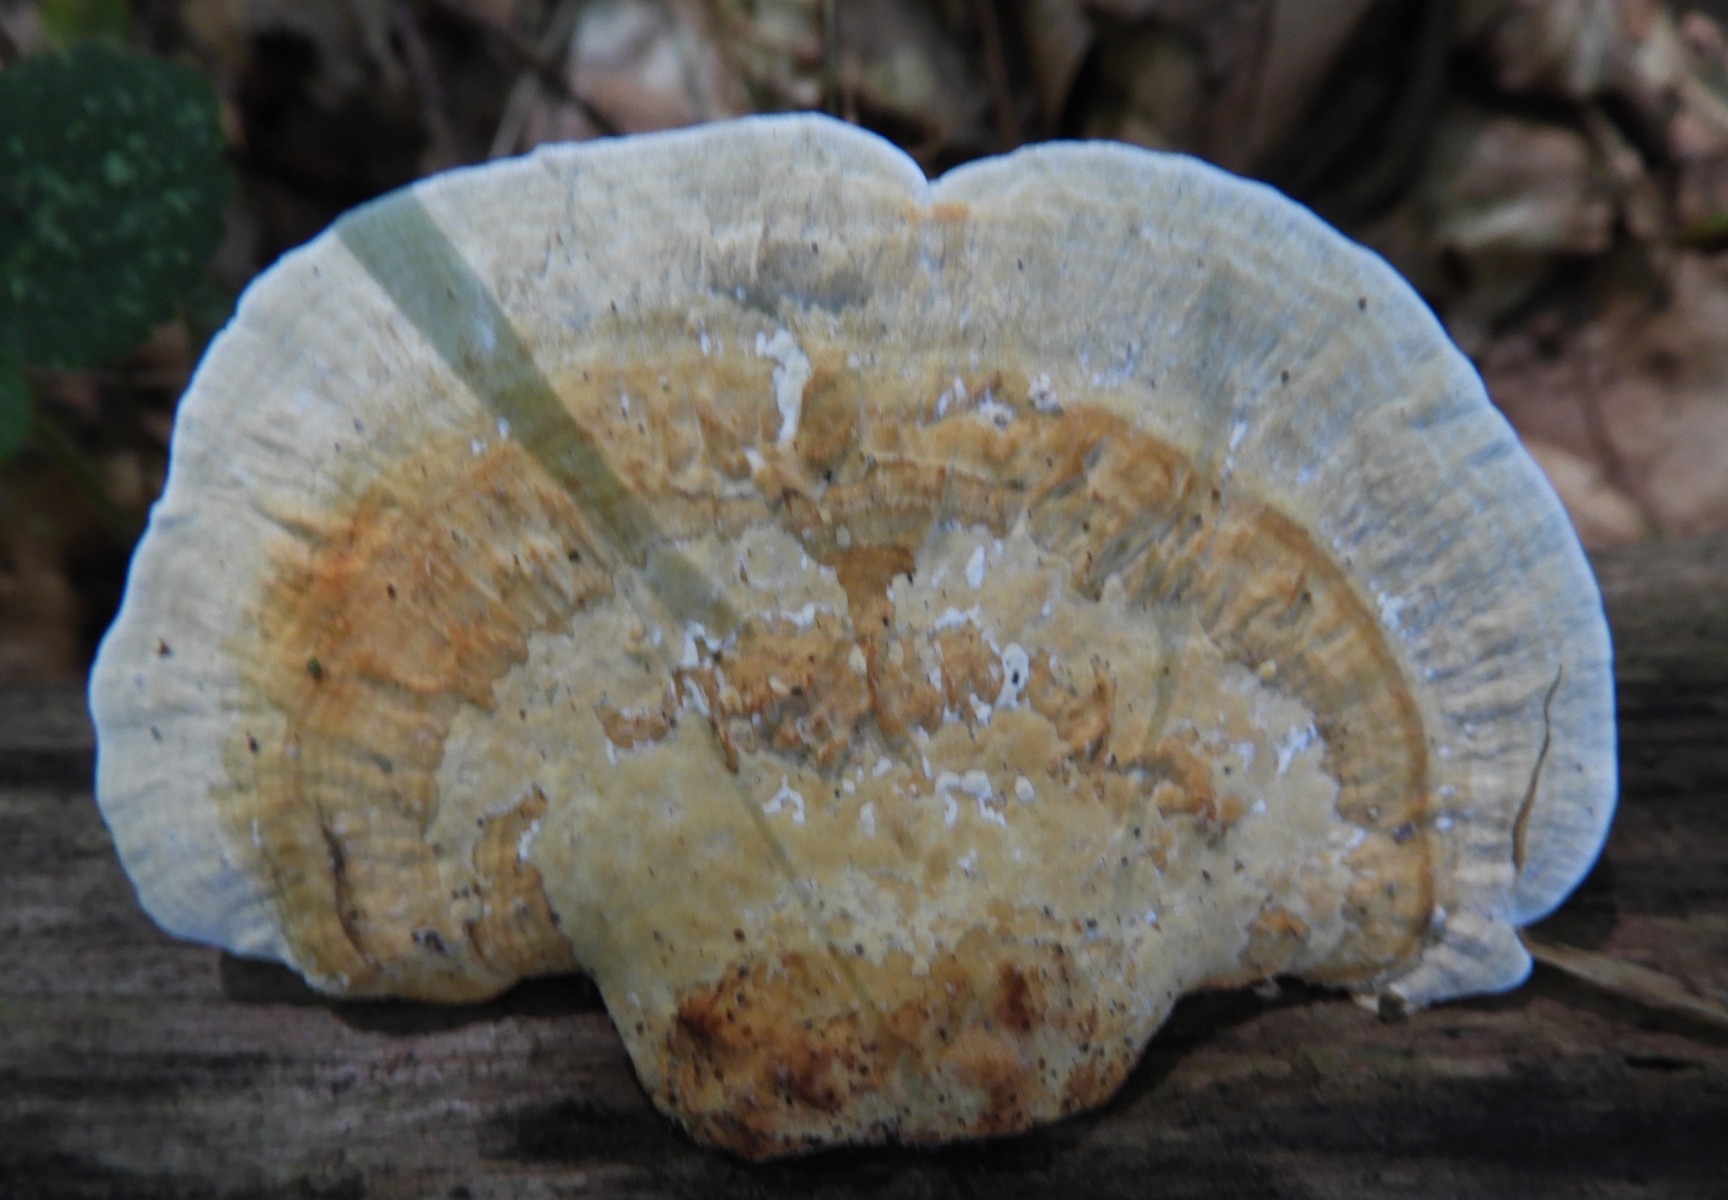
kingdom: Fungi
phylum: Basidiomycota
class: Agaricomycetes
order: Polyporales
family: Polyporaceae
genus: Daedaleopsis
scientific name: Daedaleopsis confragosa
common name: rødmende læderporesvamp
